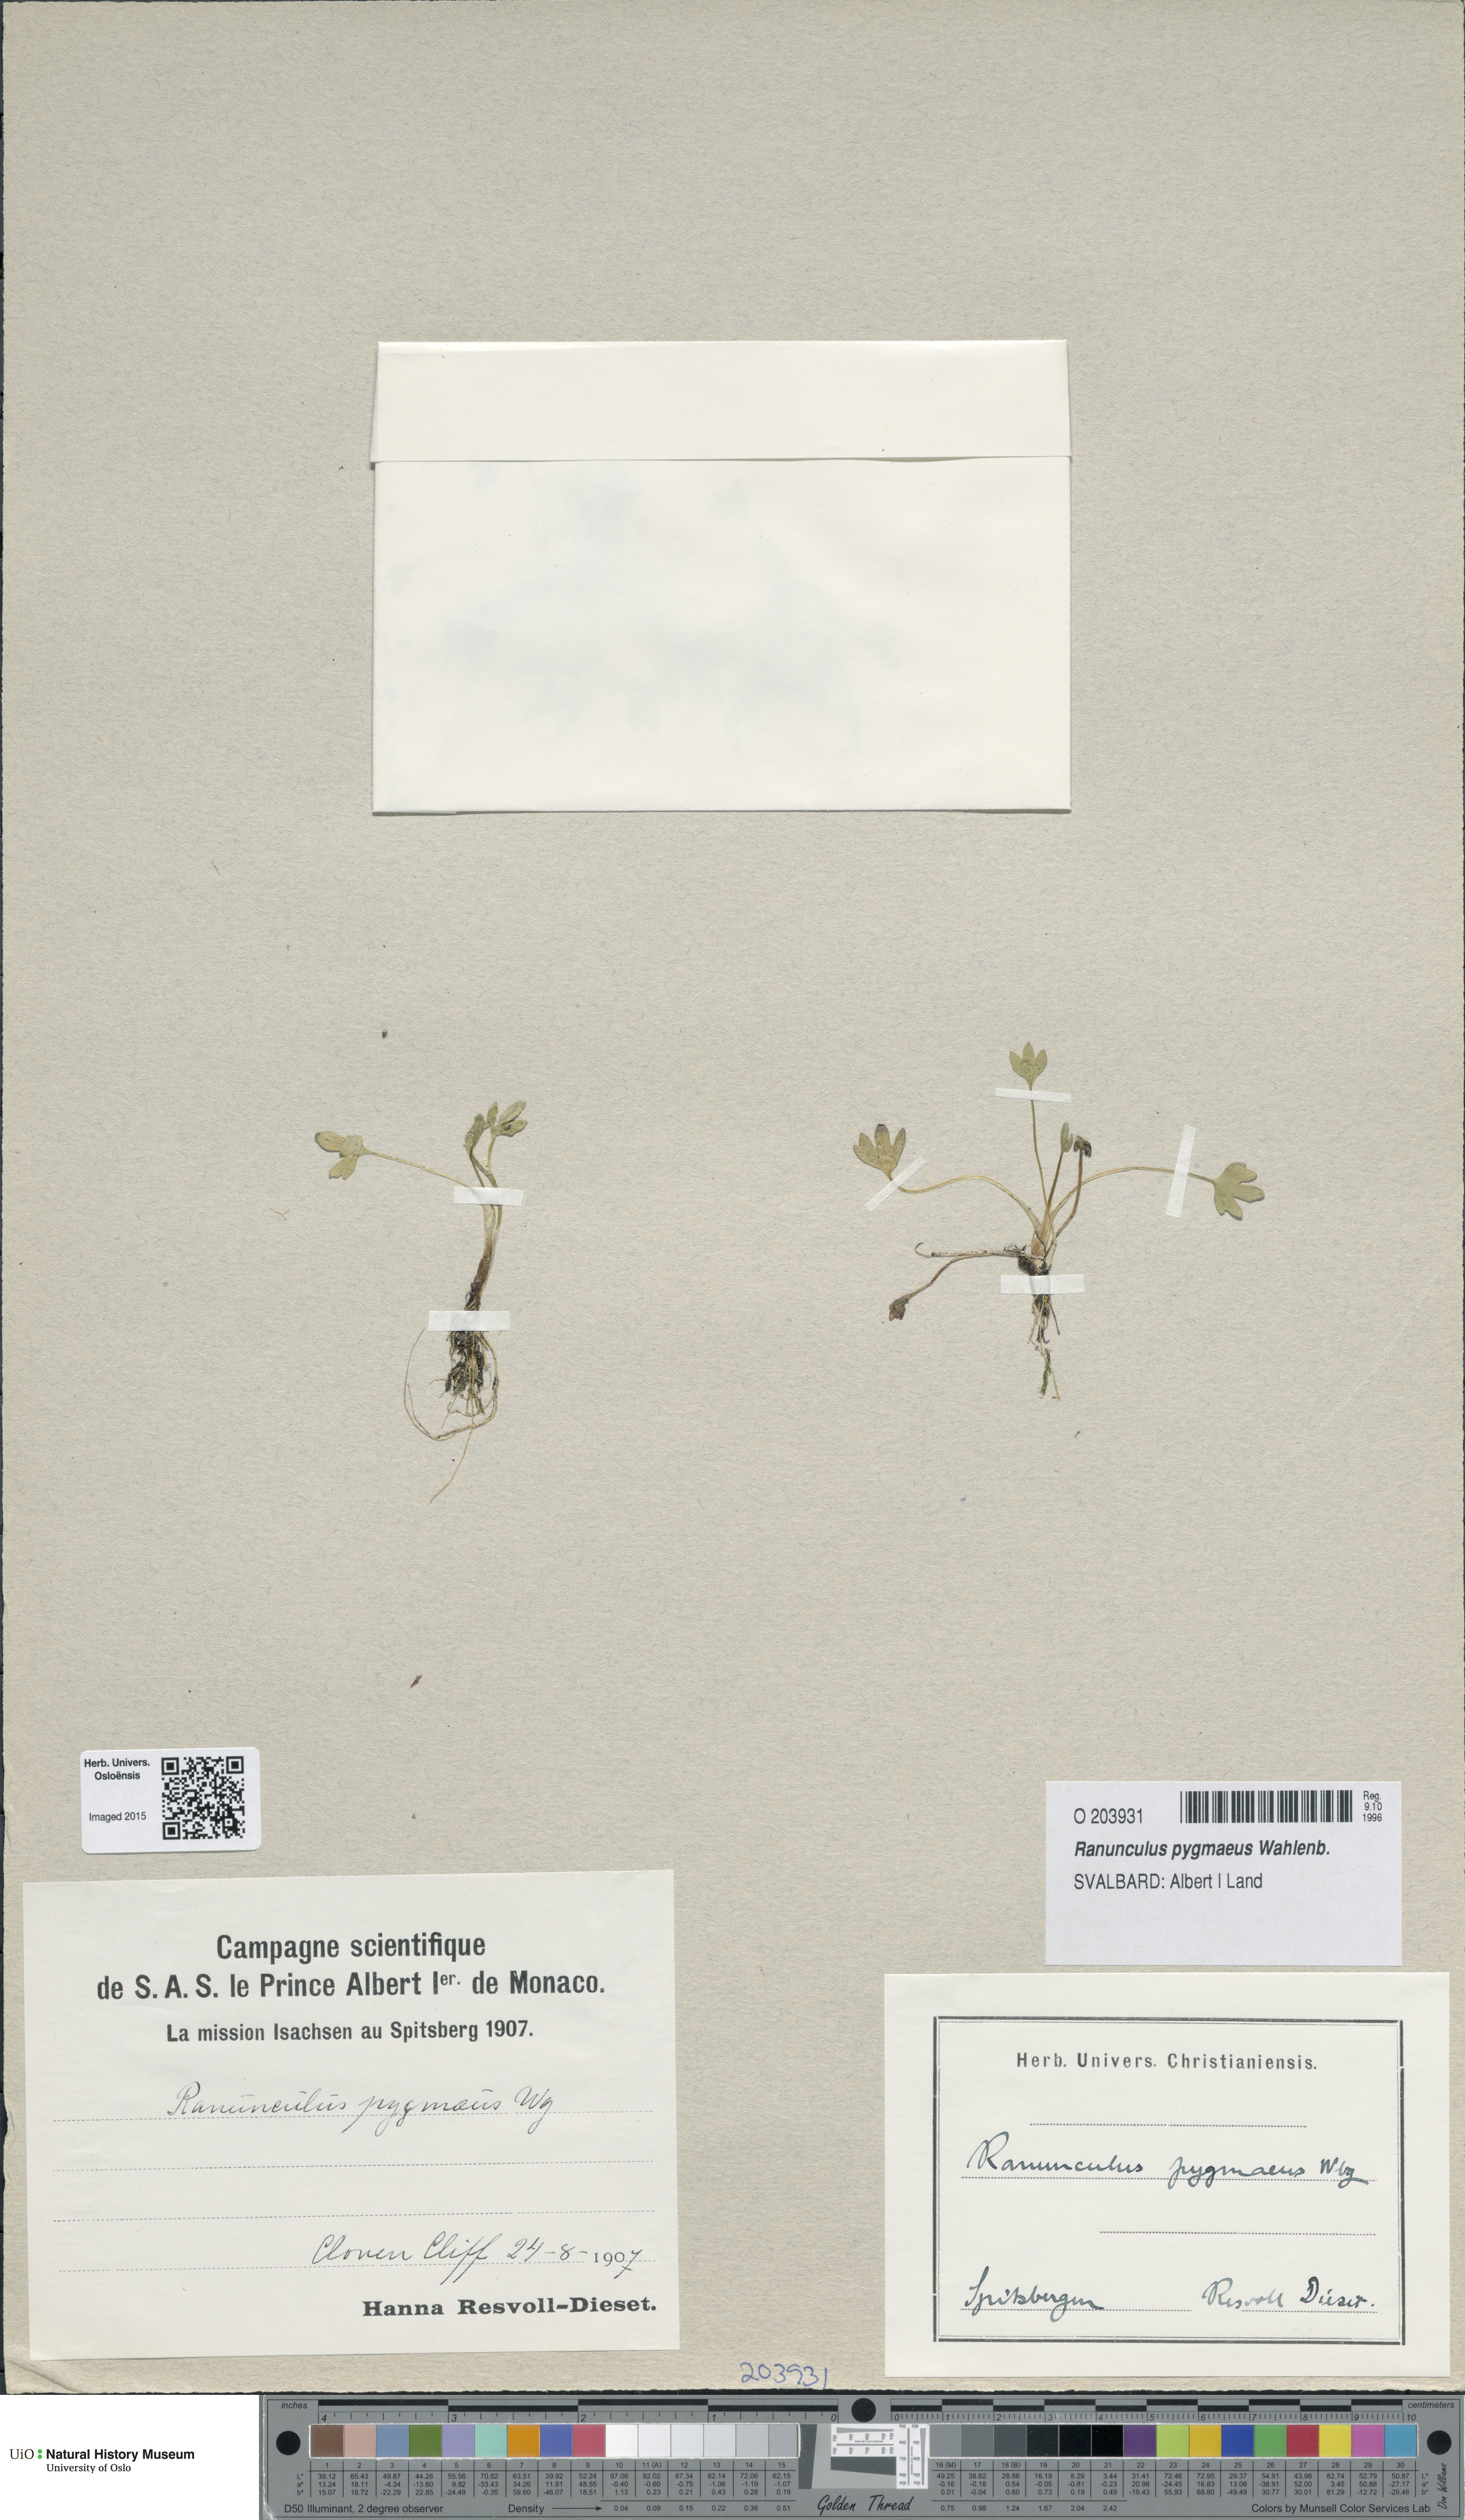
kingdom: Plantae
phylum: Tracheophyta
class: Magnoliopsida
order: Ranunculales
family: Ranunculaceae
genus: Ranunculus
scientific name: Ranunculus pygmaeus
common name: Dwarf buttercup
